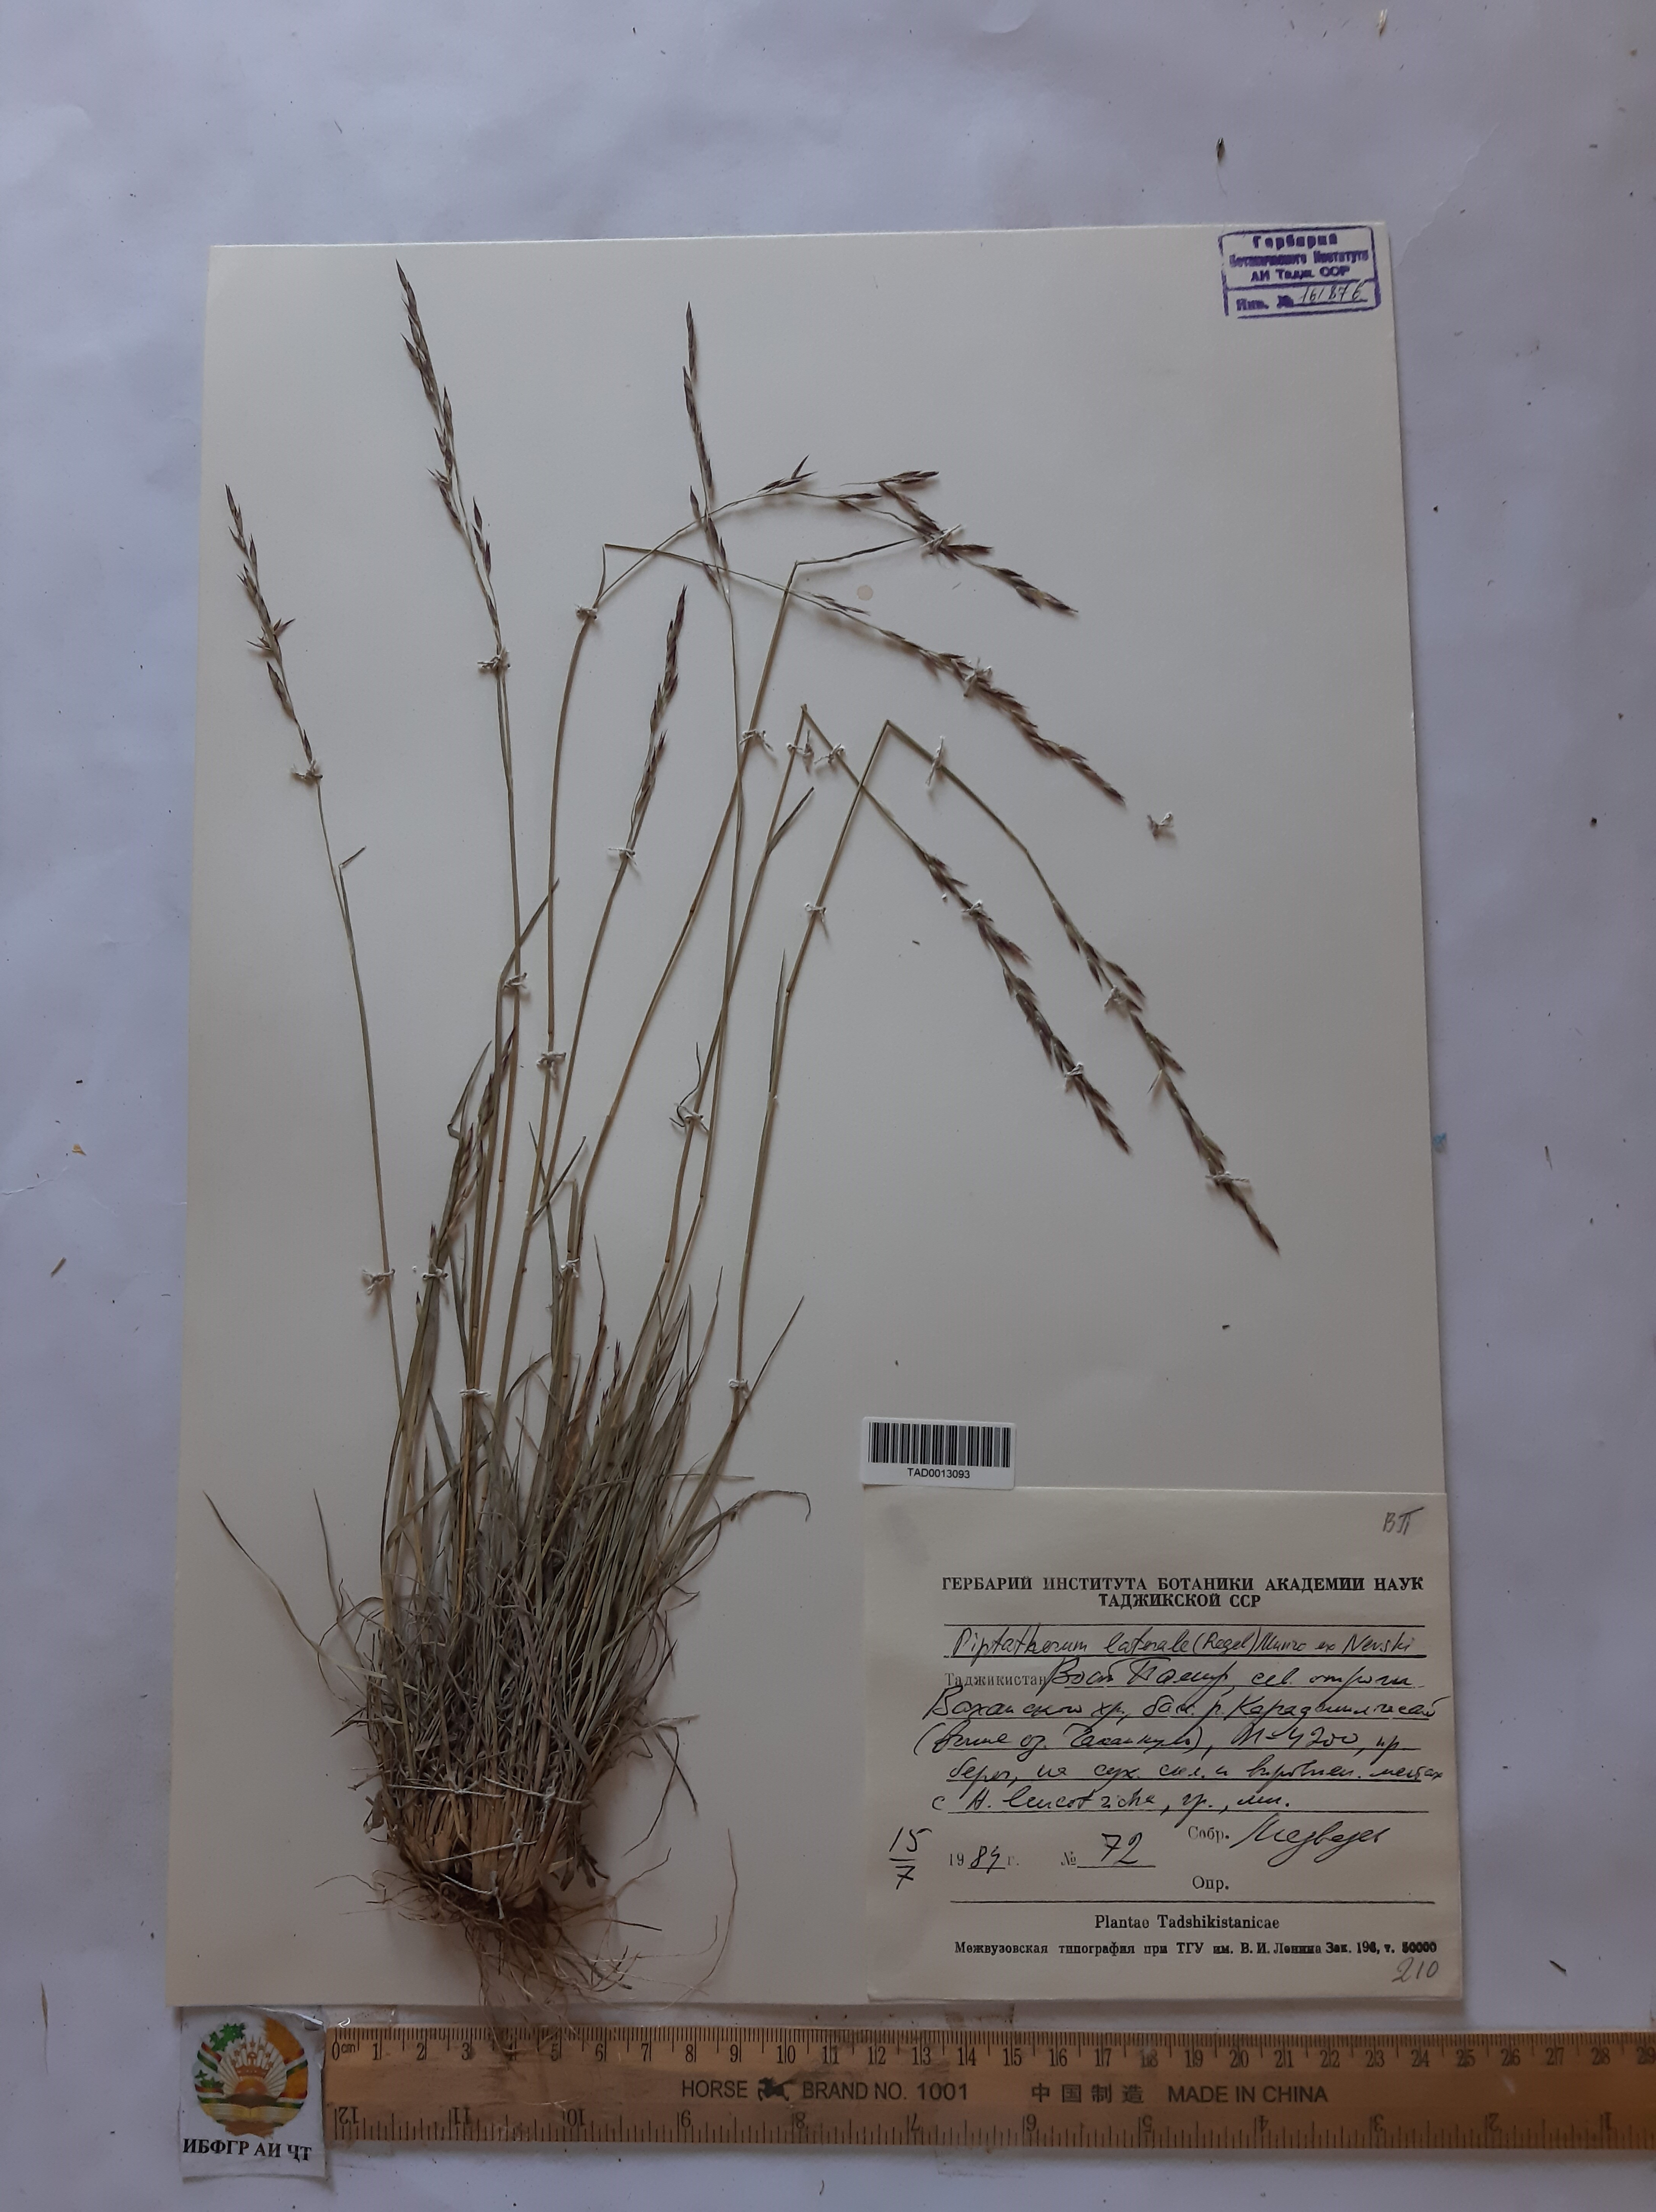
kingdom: Plantae
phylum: Tracheophyta
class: Liliopsida
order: Poales
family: Poaceae
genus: Piptatherum
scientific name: Piptatherum laterale
